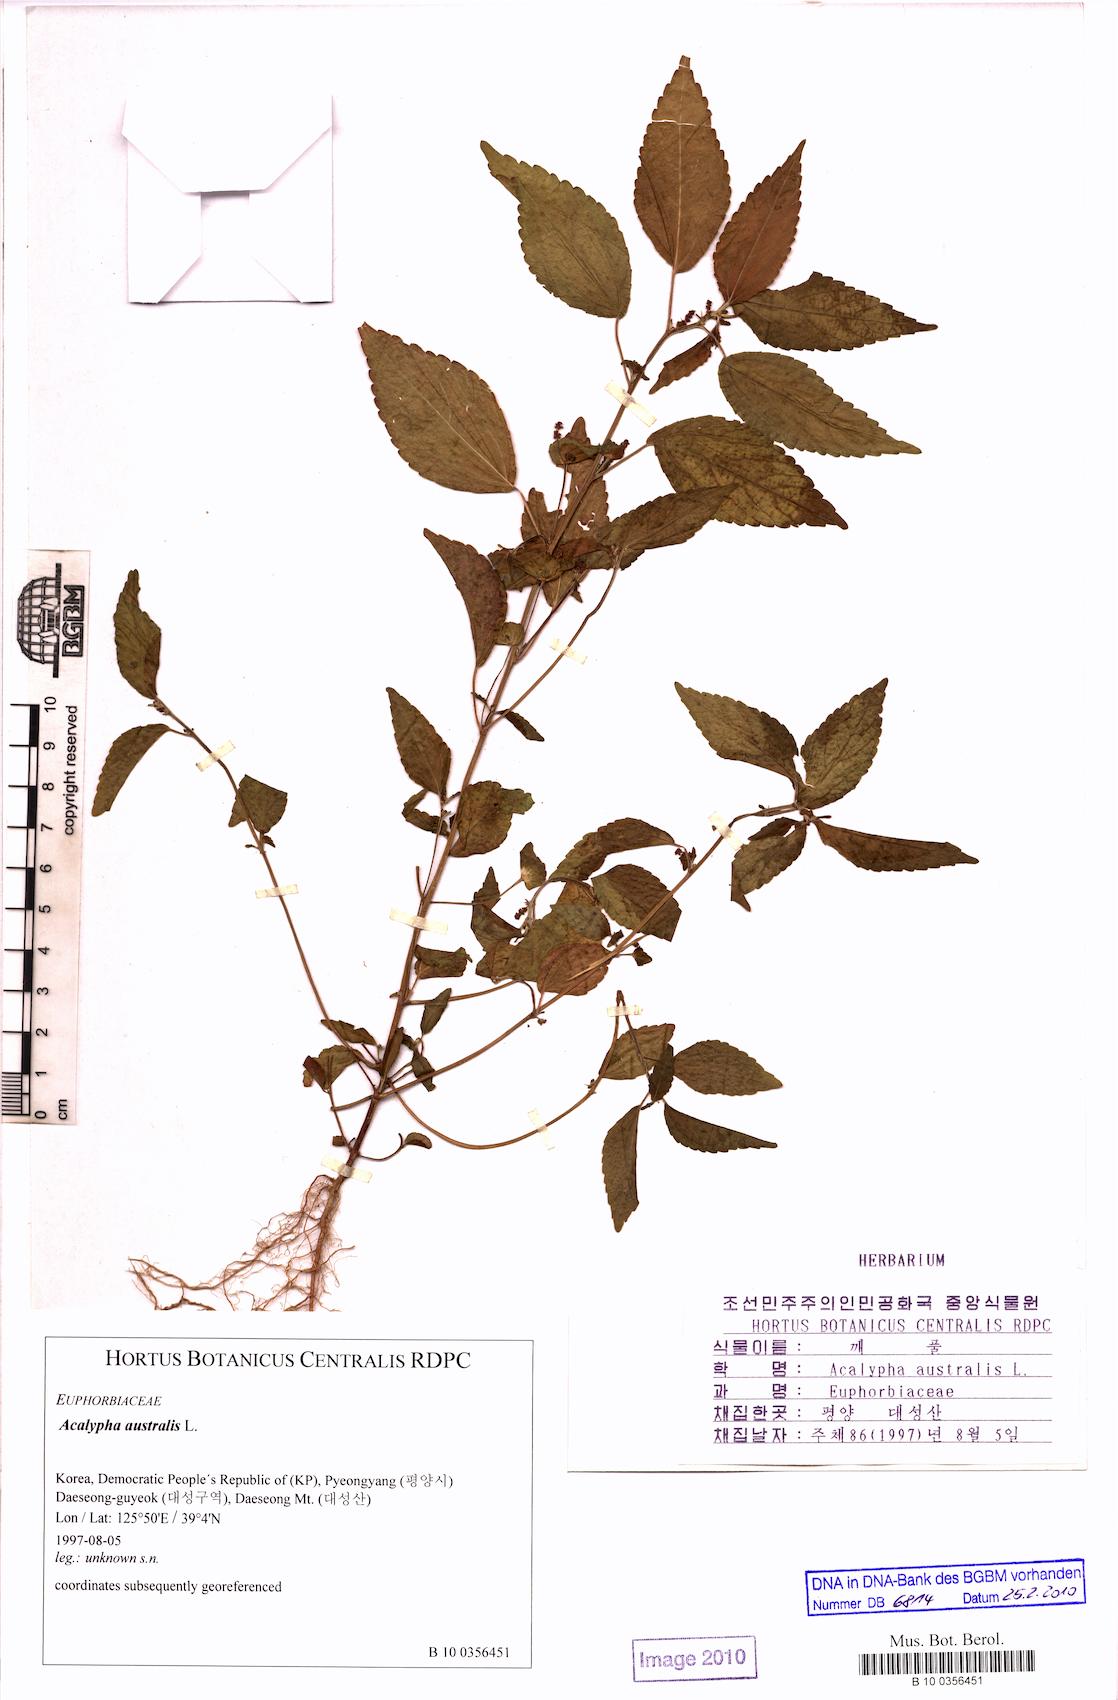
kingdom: Plantae
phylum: Tracheophyta
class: Magnoliopsida
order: Malpighiales
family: Euphorbiaceae
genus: Acalypha
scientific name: Acalypha australis
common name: Asian copperleaf
